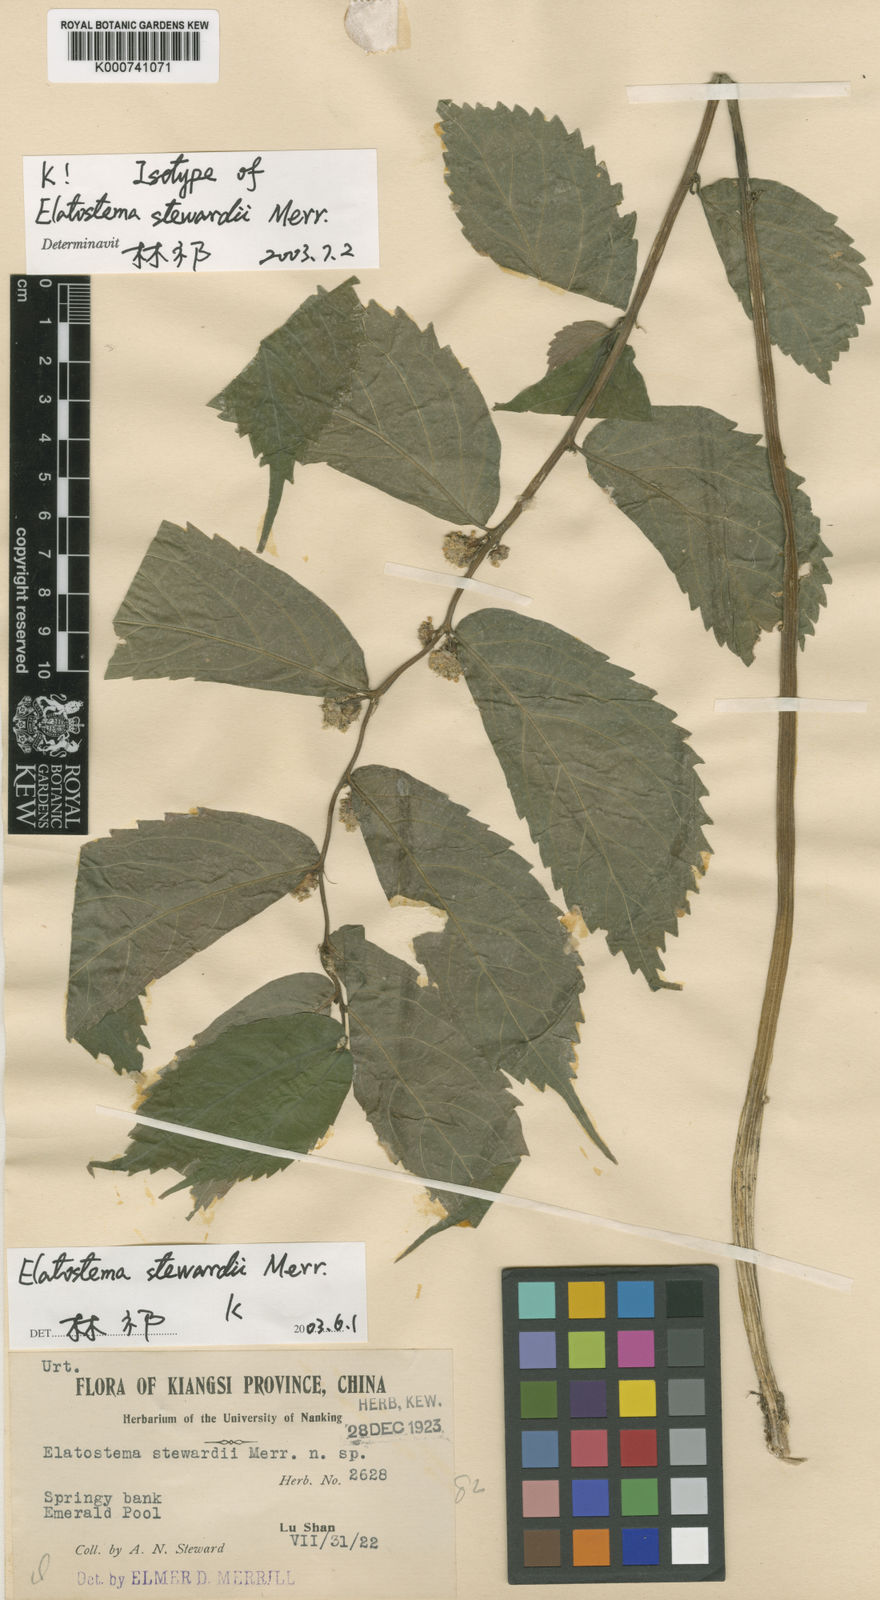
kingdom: Plantae
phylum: Tracheophyta
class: Magnoliopsida
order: Rosales
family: Urticaceae
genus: Elatostema
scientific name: Elatostema stewardii
